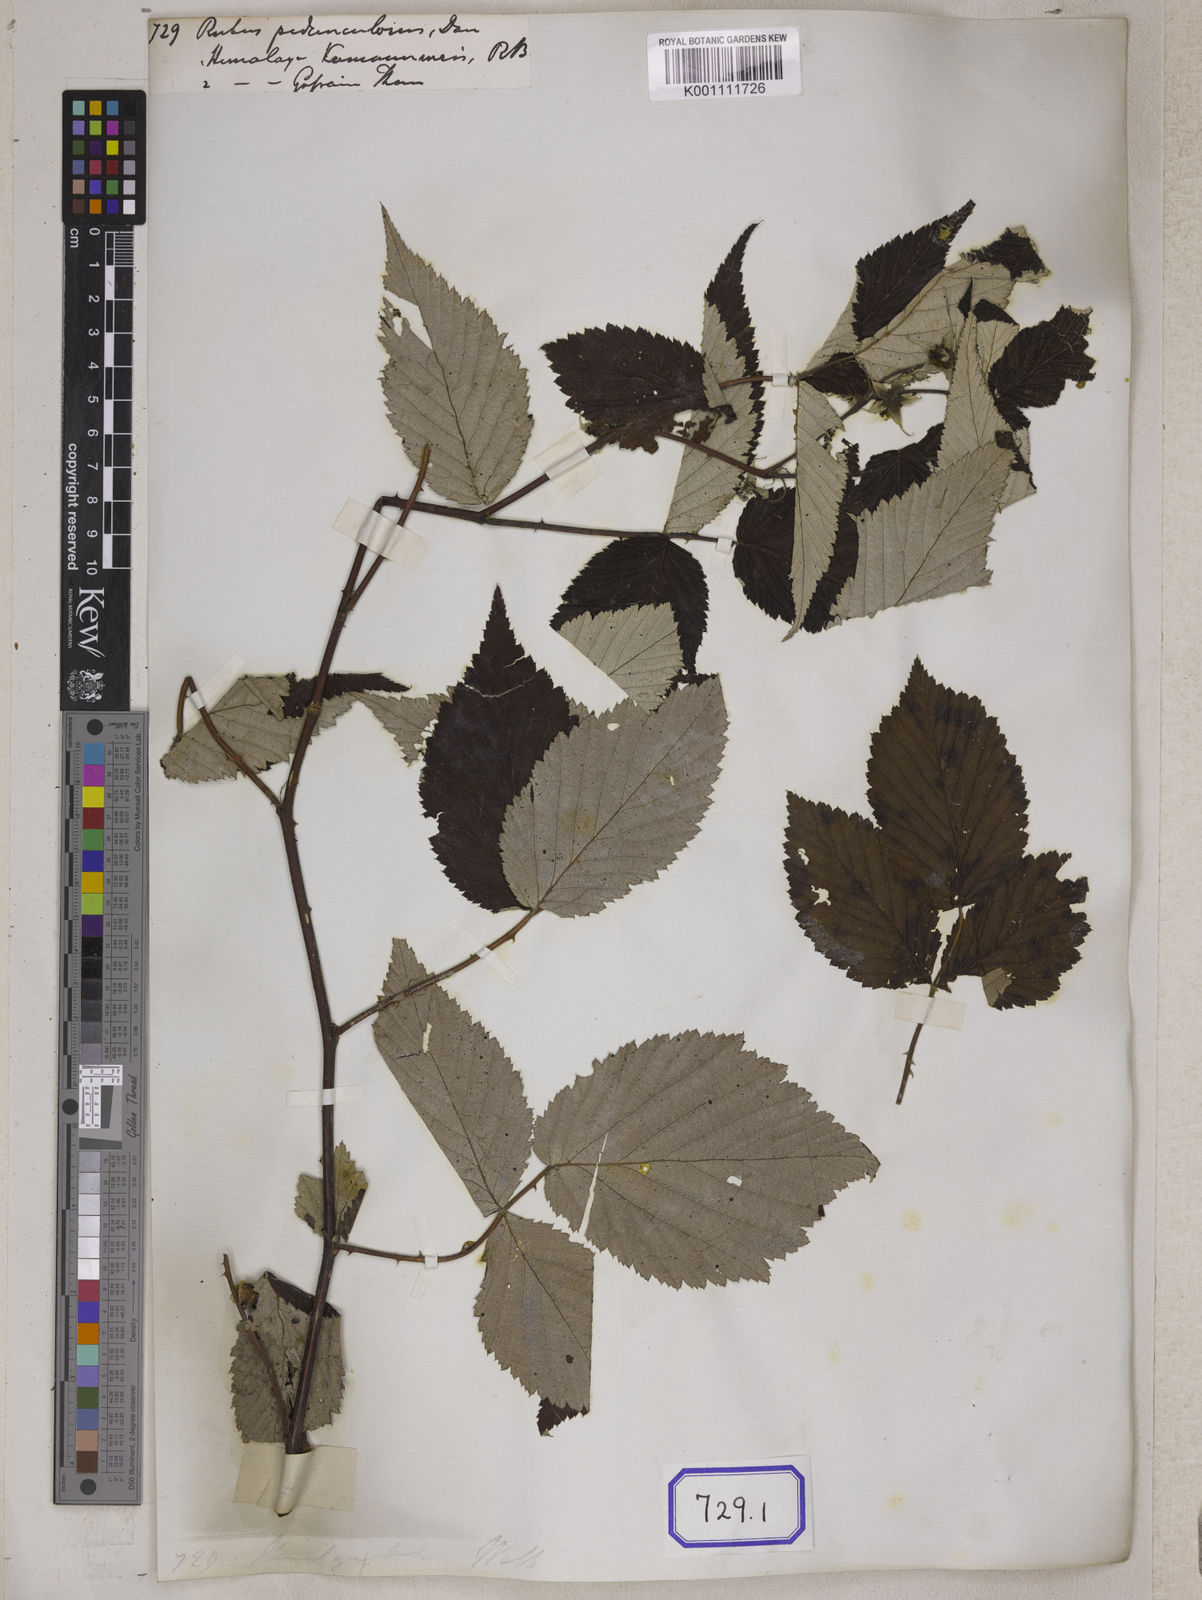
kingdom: Plantae
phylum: Tracheophyta
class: Magnoliopsida
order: Rosales
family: Rosaceae
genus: Rubus
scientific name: Rubus pedunculosus
